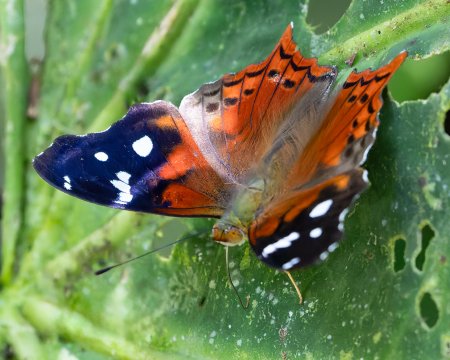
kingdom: Animalia
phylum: Arthropoda
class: Insecta
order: Lepidoptera
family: Nymphalidae
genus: Hypanartia
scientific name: Hypanartia trimaculata
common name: Reddish Mapwing
